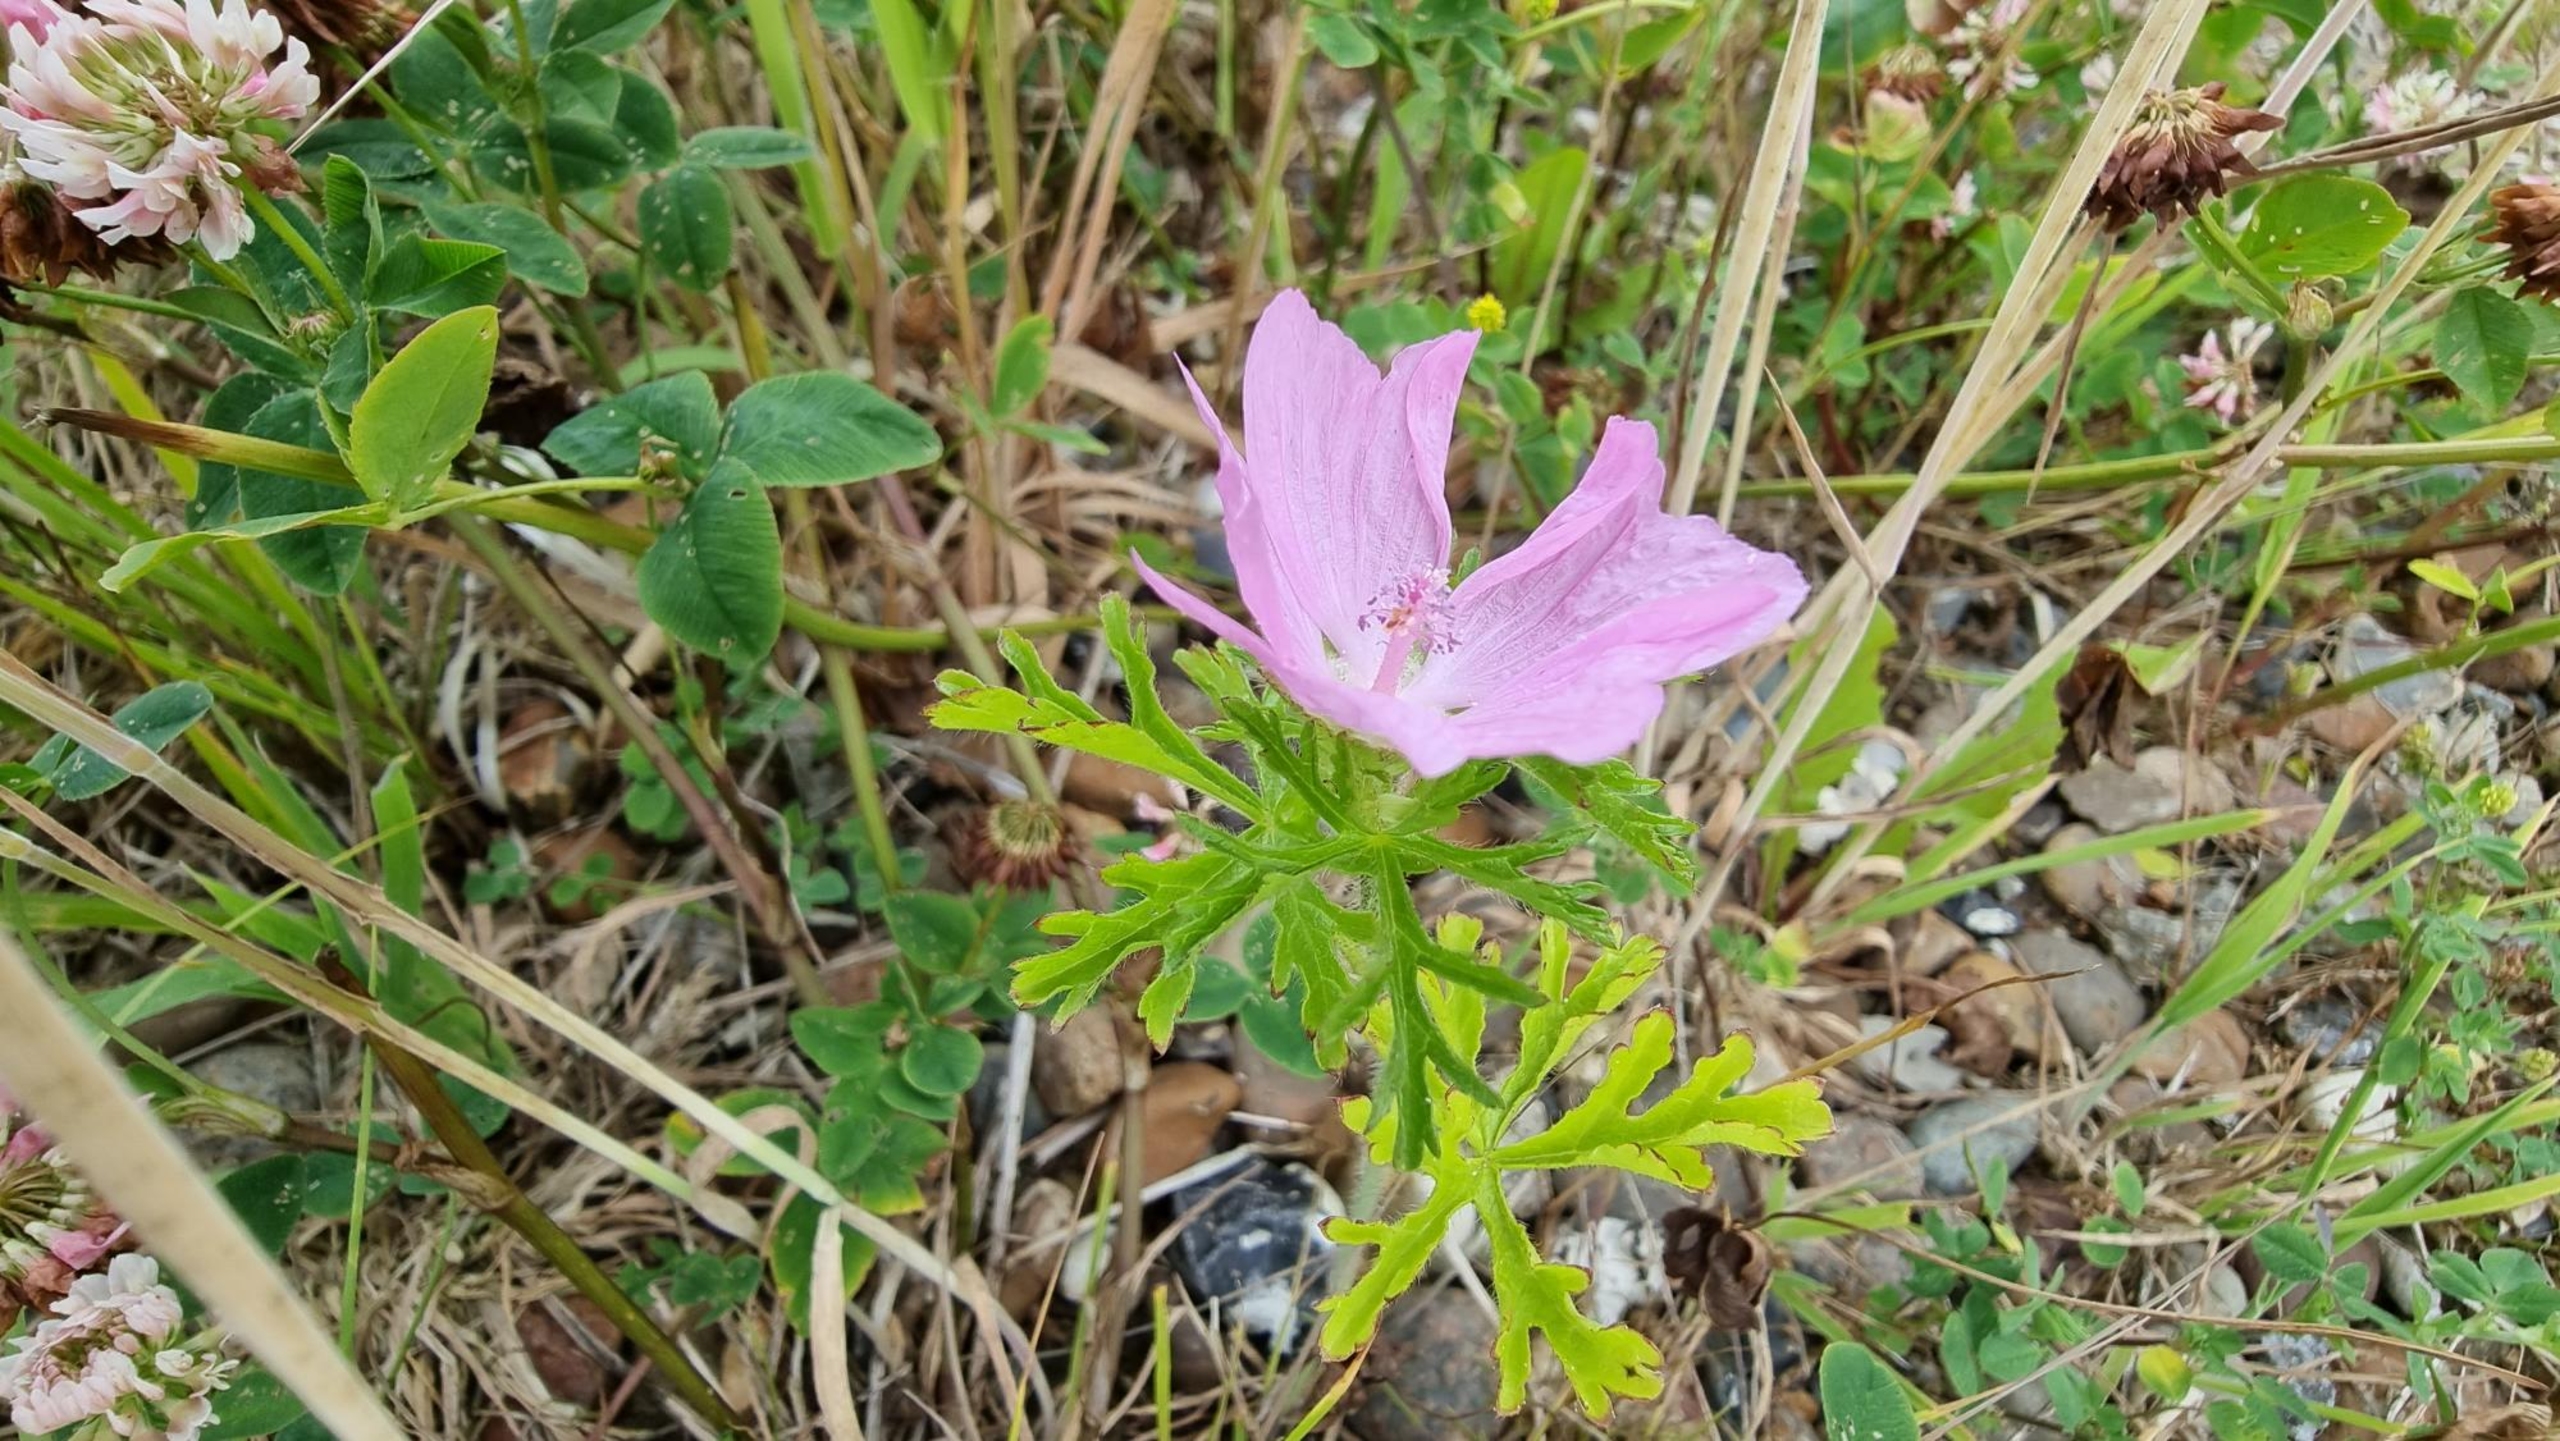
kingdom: Plantae
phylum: Tracheophyta
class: Magnoliopsida
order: Malvales
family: Malvaceae
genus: Malva
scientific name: Malva moschata
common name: Moskus-katost
